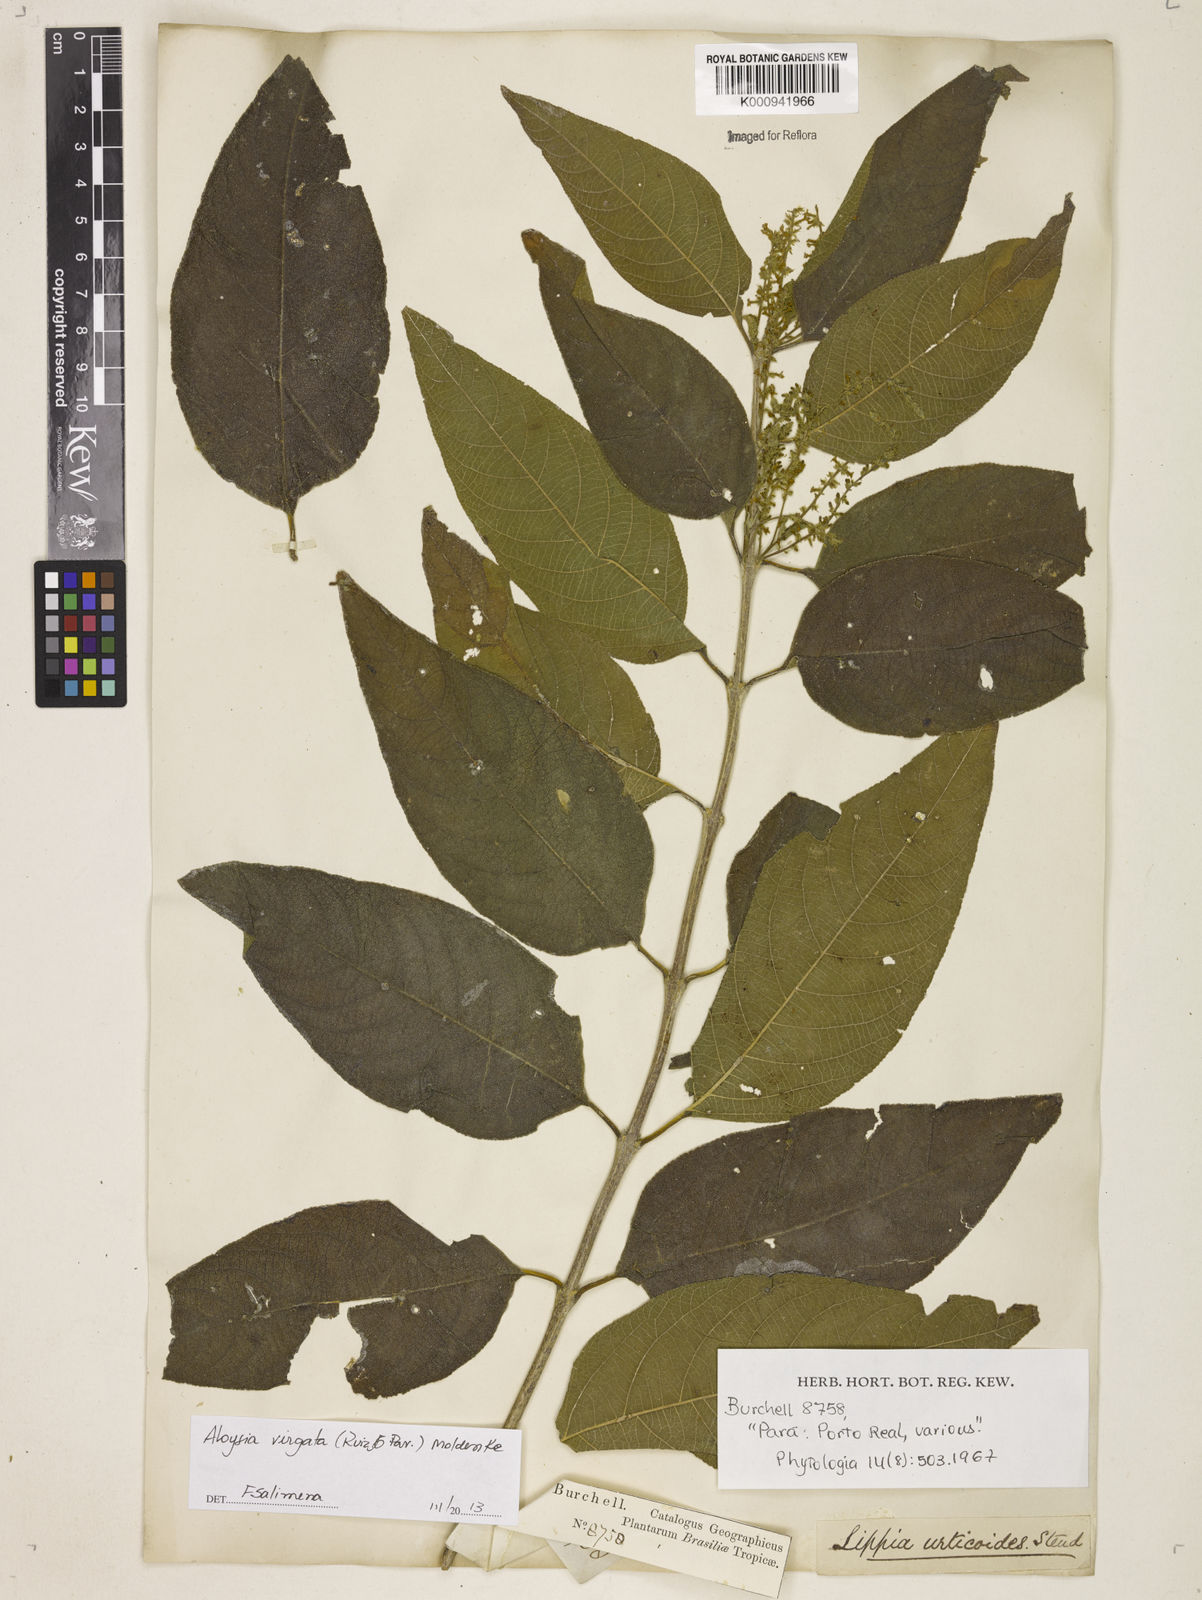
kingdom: Plantae
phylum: Tracheophyta
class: Magnoliopsida
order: Lamiales
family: Verbenaceae
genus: Aloysia
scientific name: Aloysia
